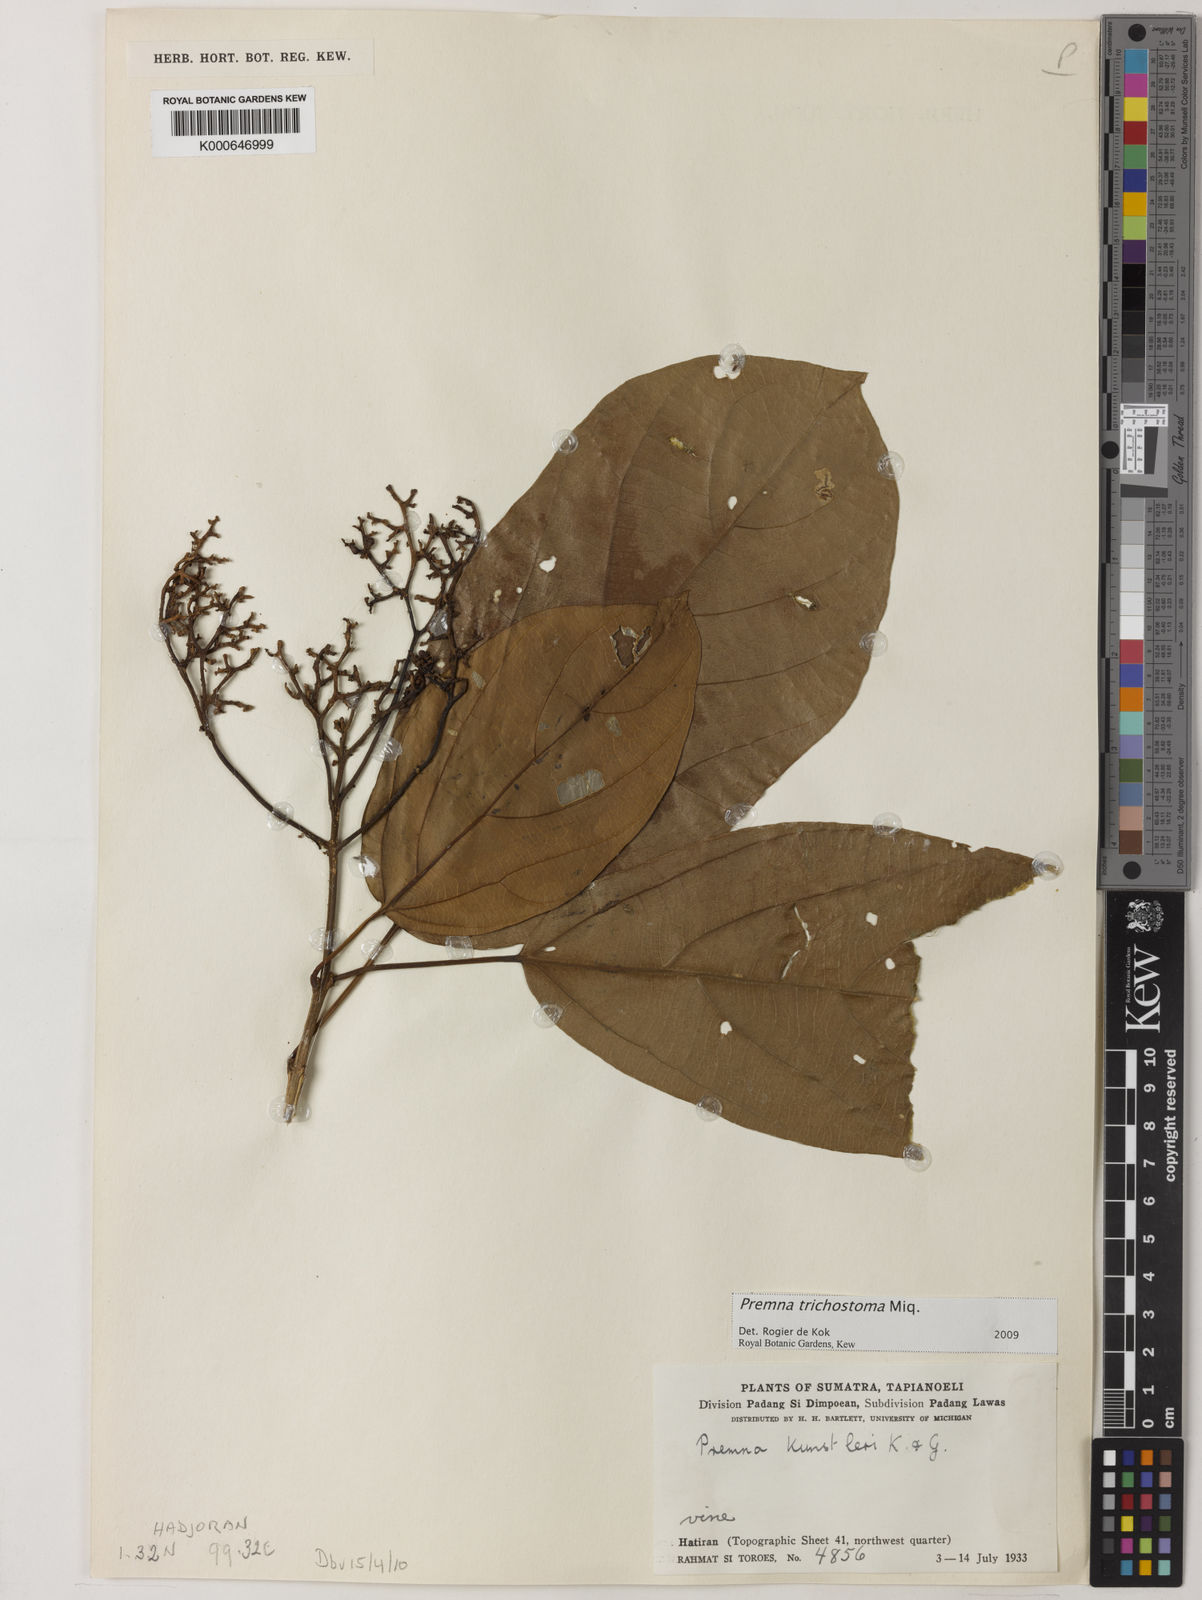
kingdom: Plantae
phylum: Tracheophyta
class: Magnoliopsida
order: Lamiales
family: Lamiaceae
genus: Premna
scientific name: Premna trichostoma
